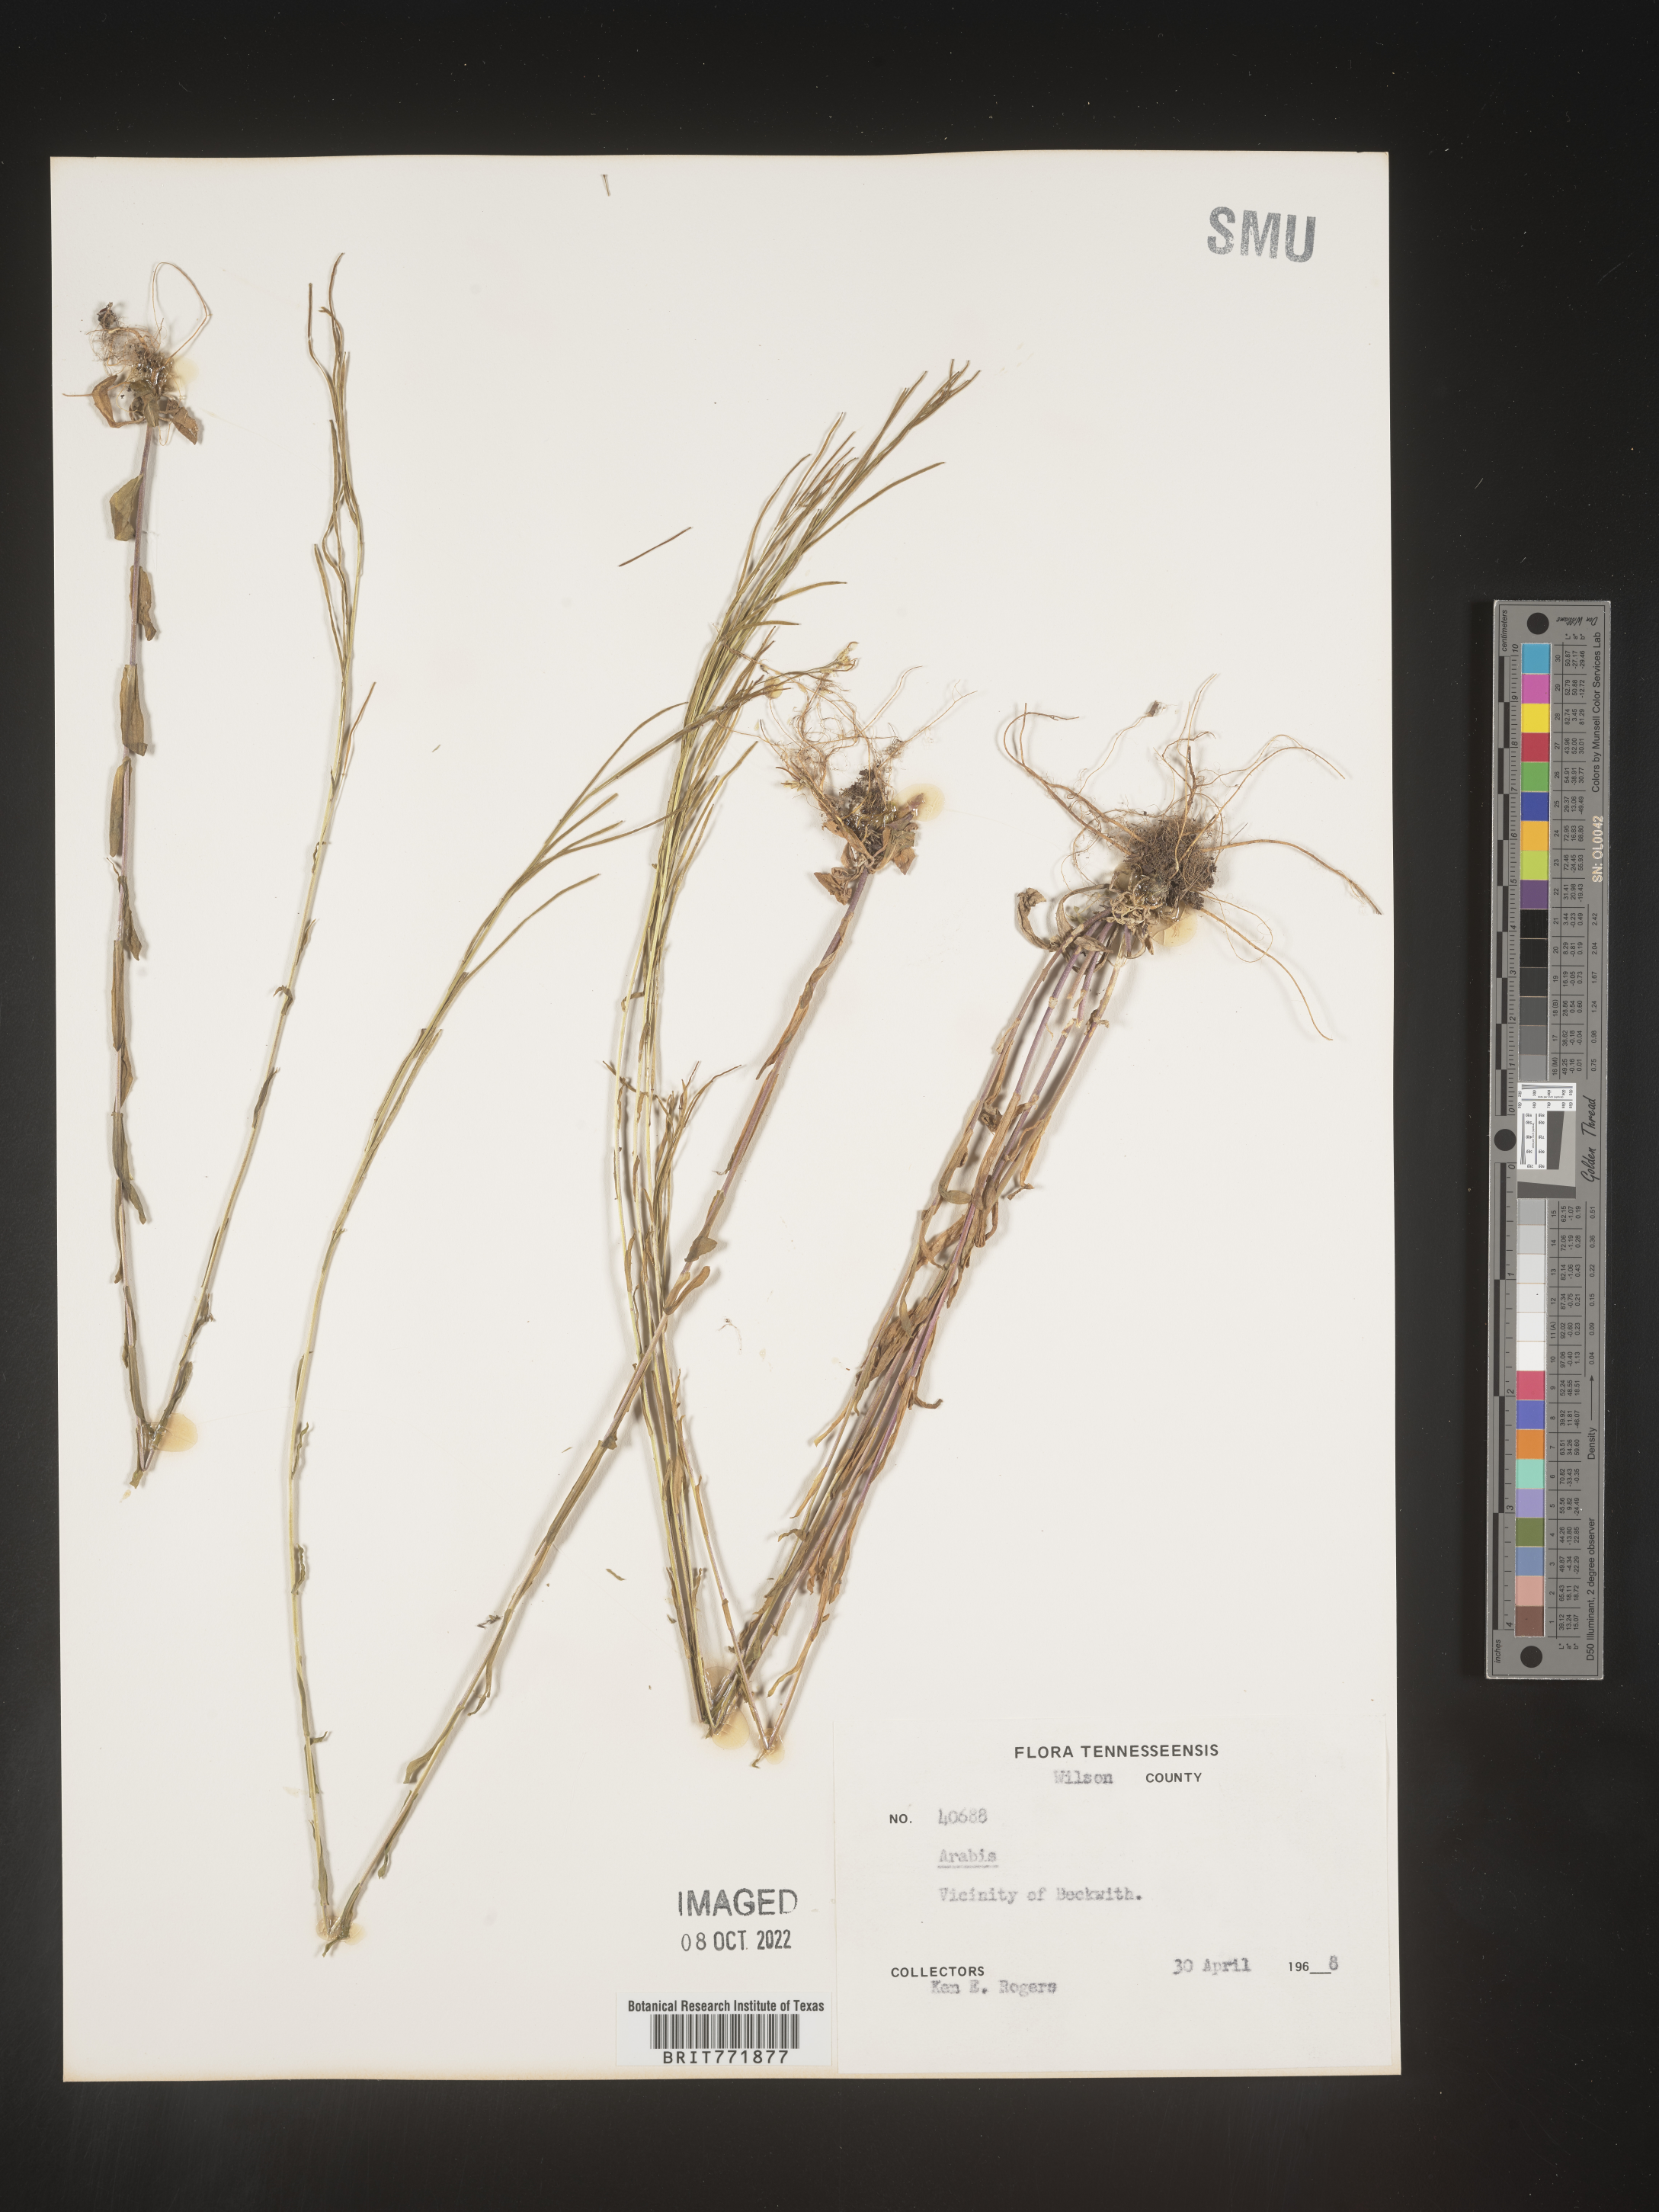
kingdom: Plantae
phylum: Tracheophyta
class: Magnoliopsida
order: Brassicales
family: Brassicaceae
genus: Arabis
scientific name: Arabis
